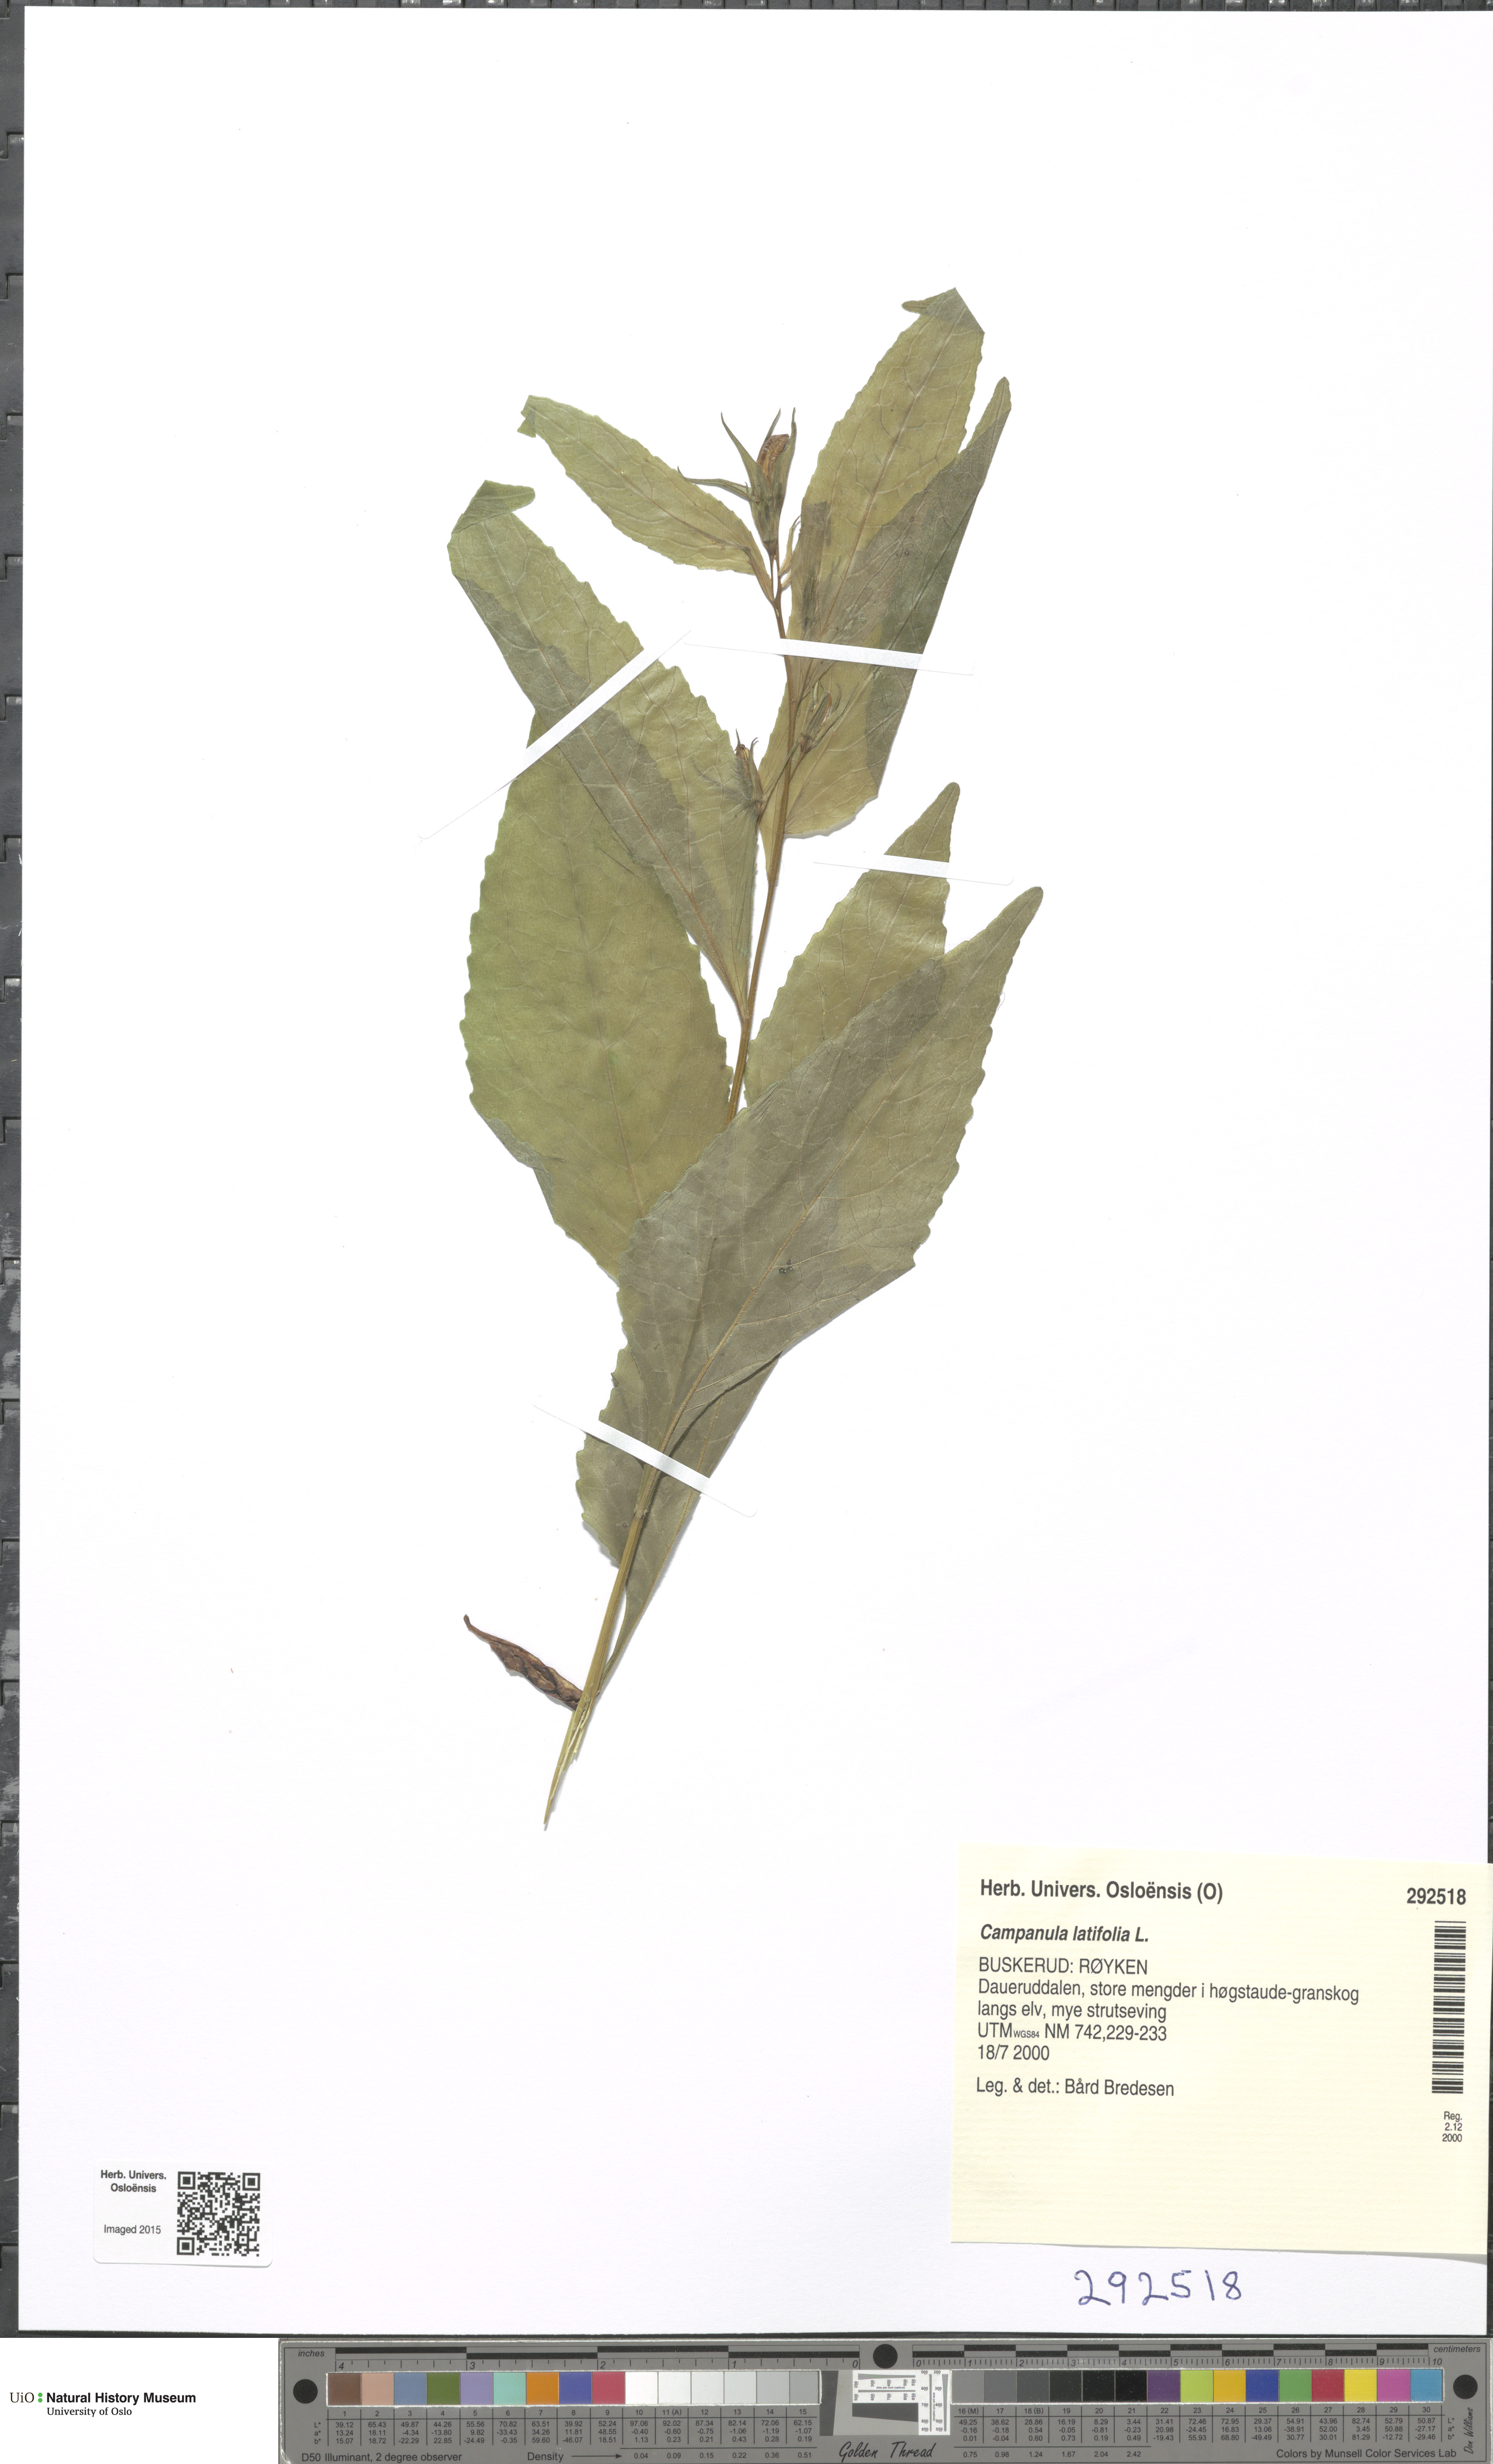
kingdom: Plantae
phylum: Tracheophyta
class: Magnoliopsida
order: Asterales
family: Campanulaceae
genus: Campanula
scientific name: Campanula latifolia
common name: Giant bellflower
